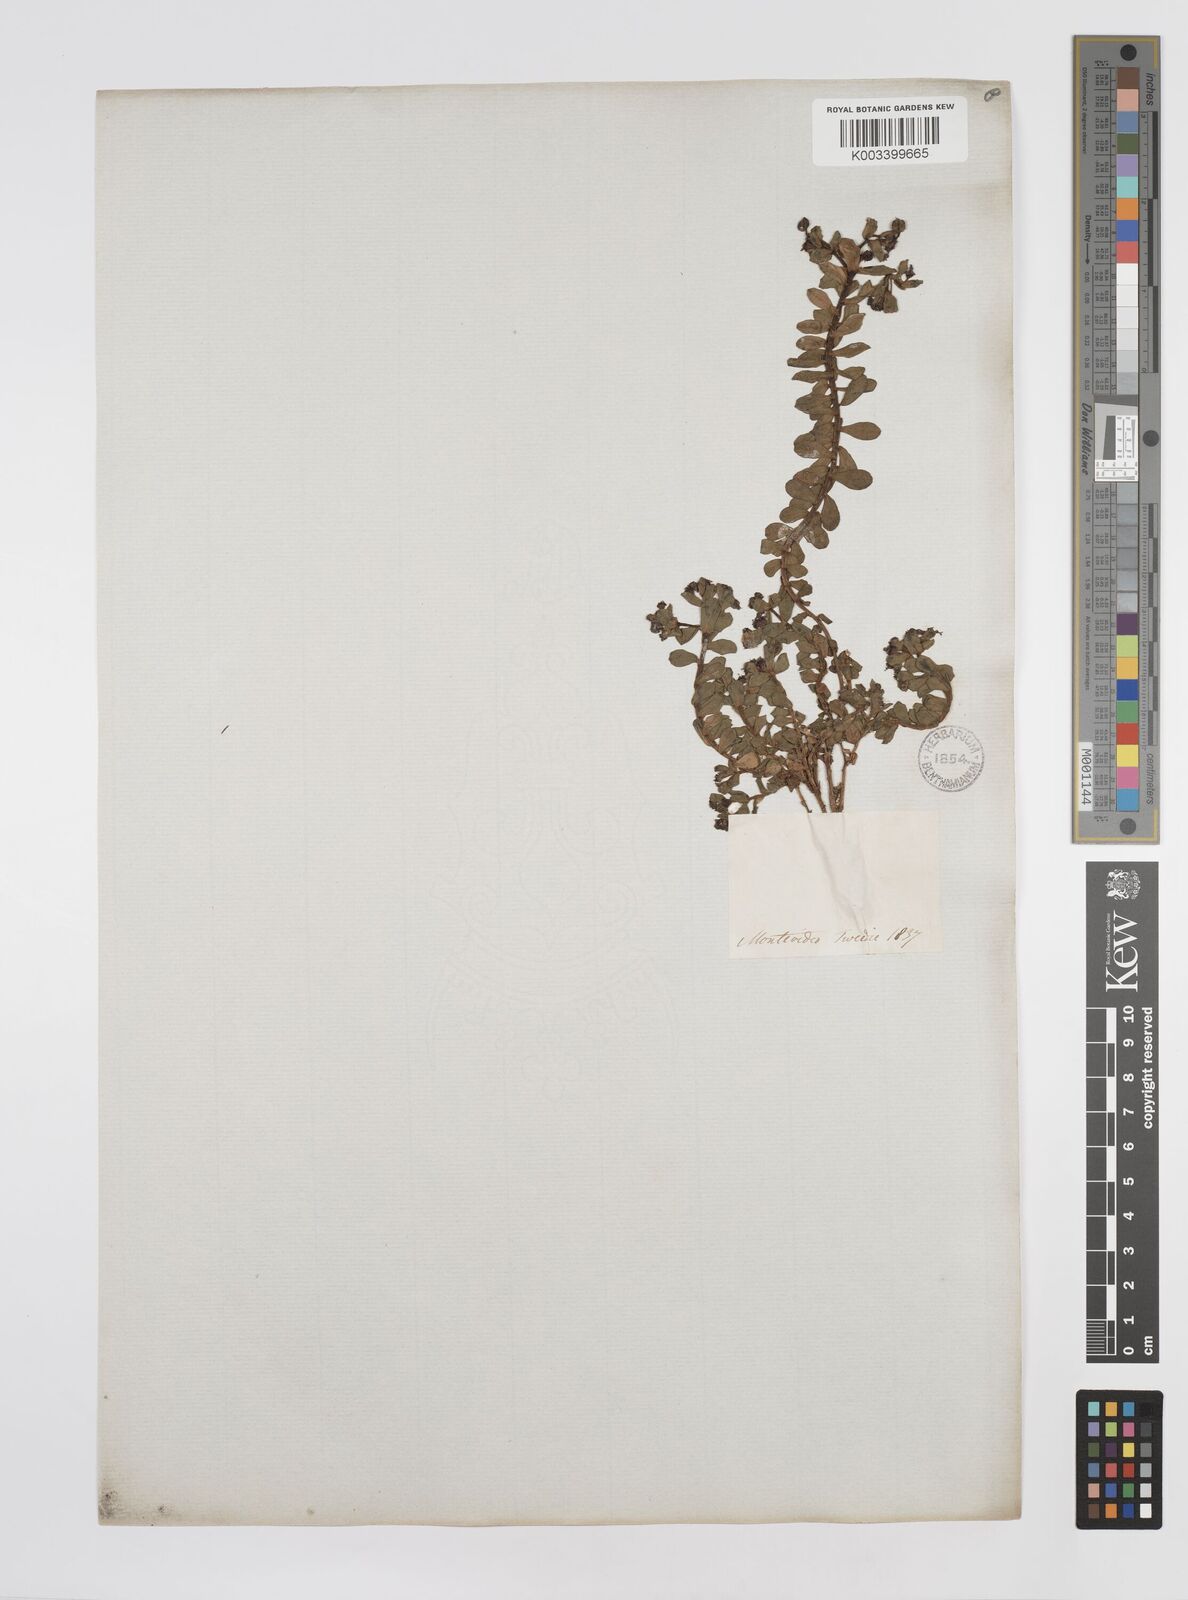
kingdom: Plantae
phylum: Tracheophyta
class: Magnoliopsida
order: Malpighiales
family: Euphorbiaceae
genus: Euphorbia
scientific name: Euphorbia segetalis
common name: Corn spurge
